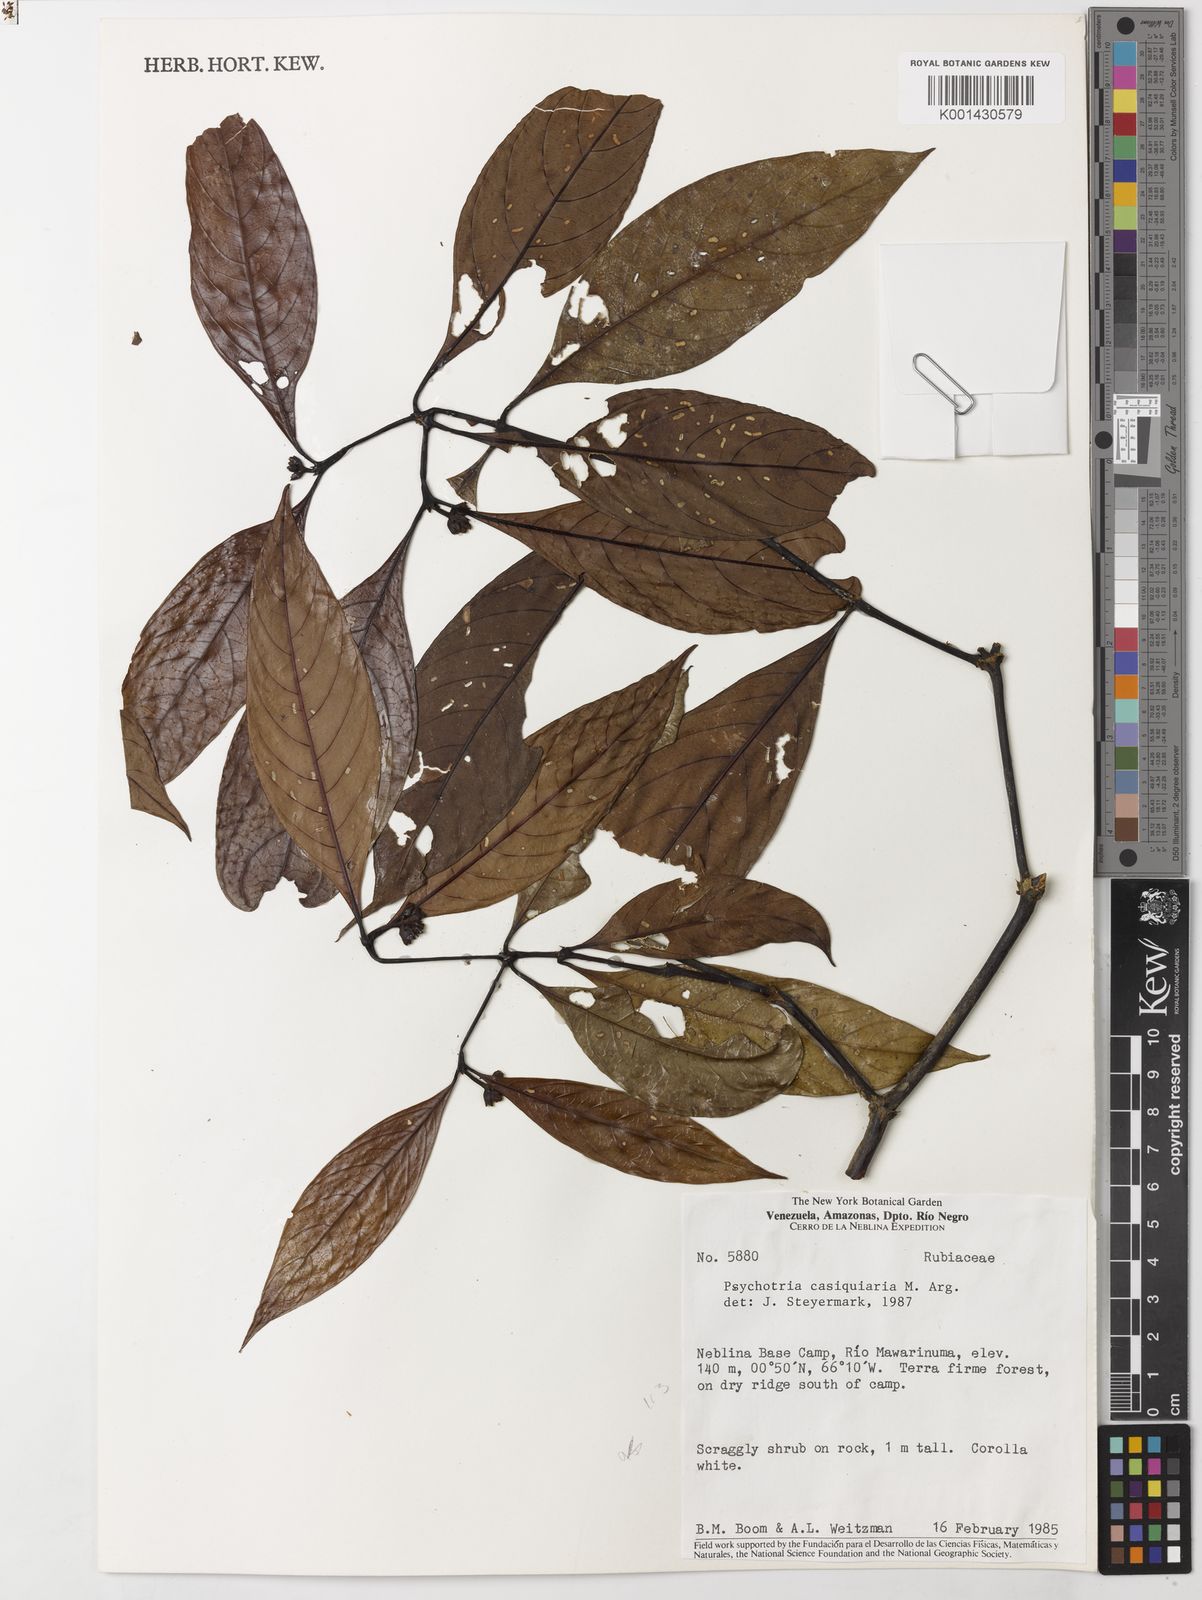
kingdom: Plantae
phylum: Tracheophyta
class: Magnoliopsida
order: Gentianales
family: Rubiaceae
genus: Psychotria
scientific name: Psychotria
